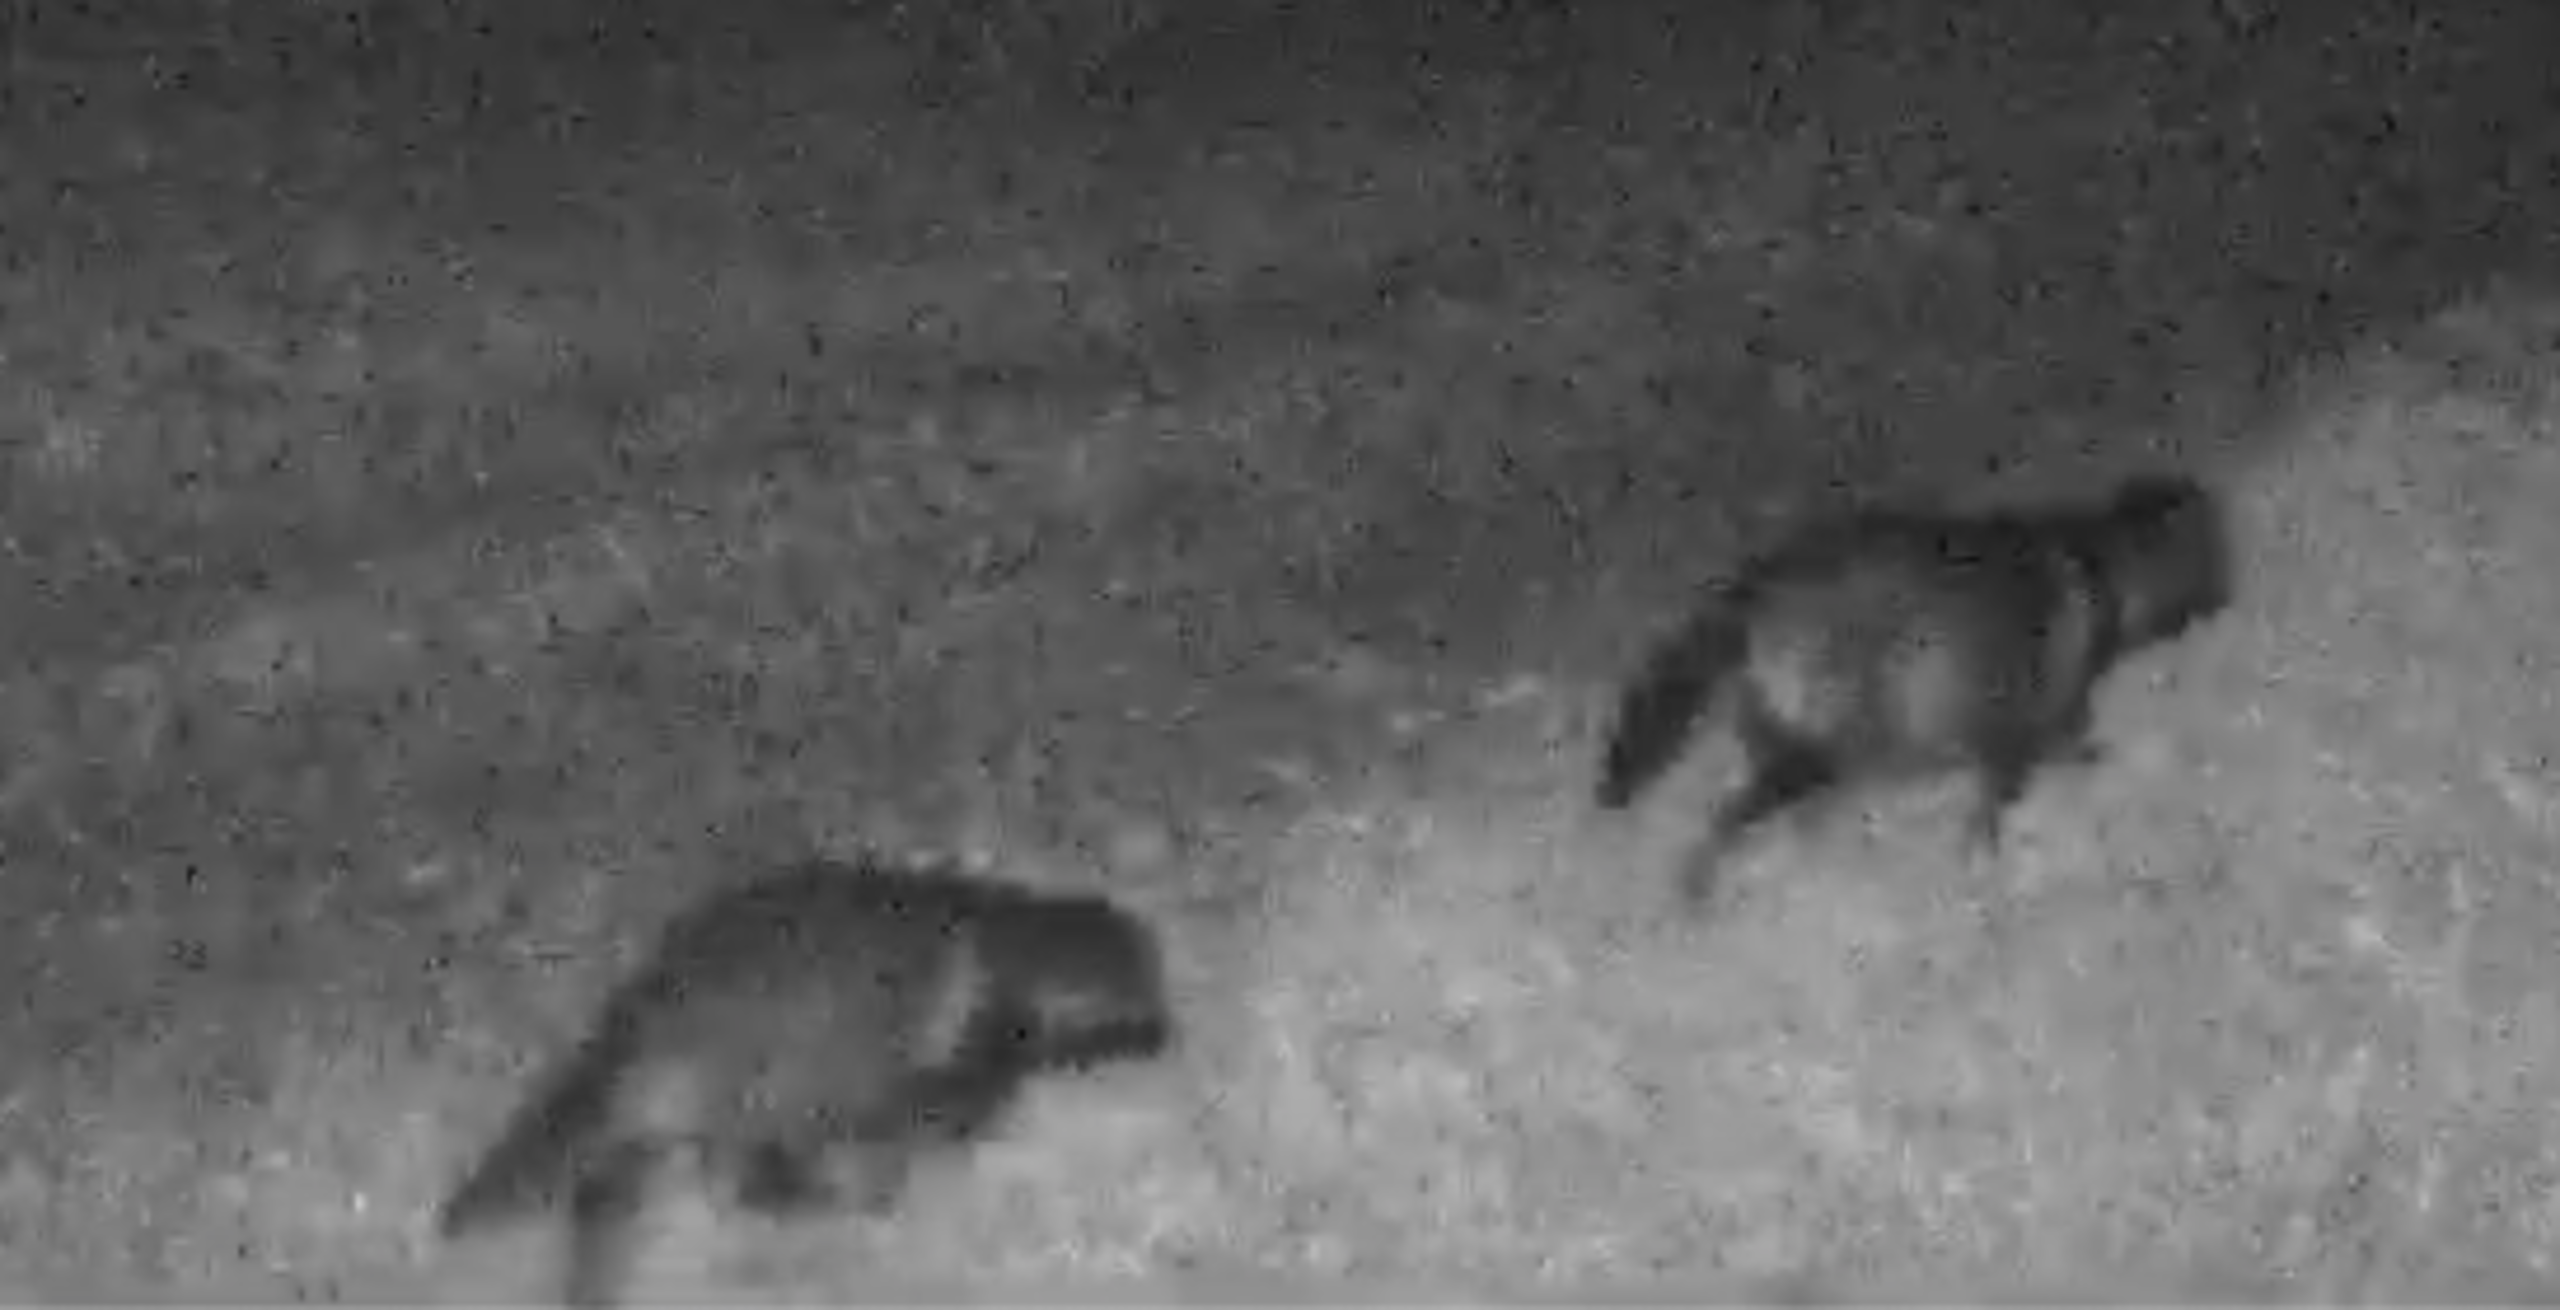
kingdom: Animalia
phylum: Chordata
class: Mammalia
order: Carnivora
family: Canidae
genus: Nyctereutes
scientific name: Nyctereutes procyonoides
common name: Mårhund
